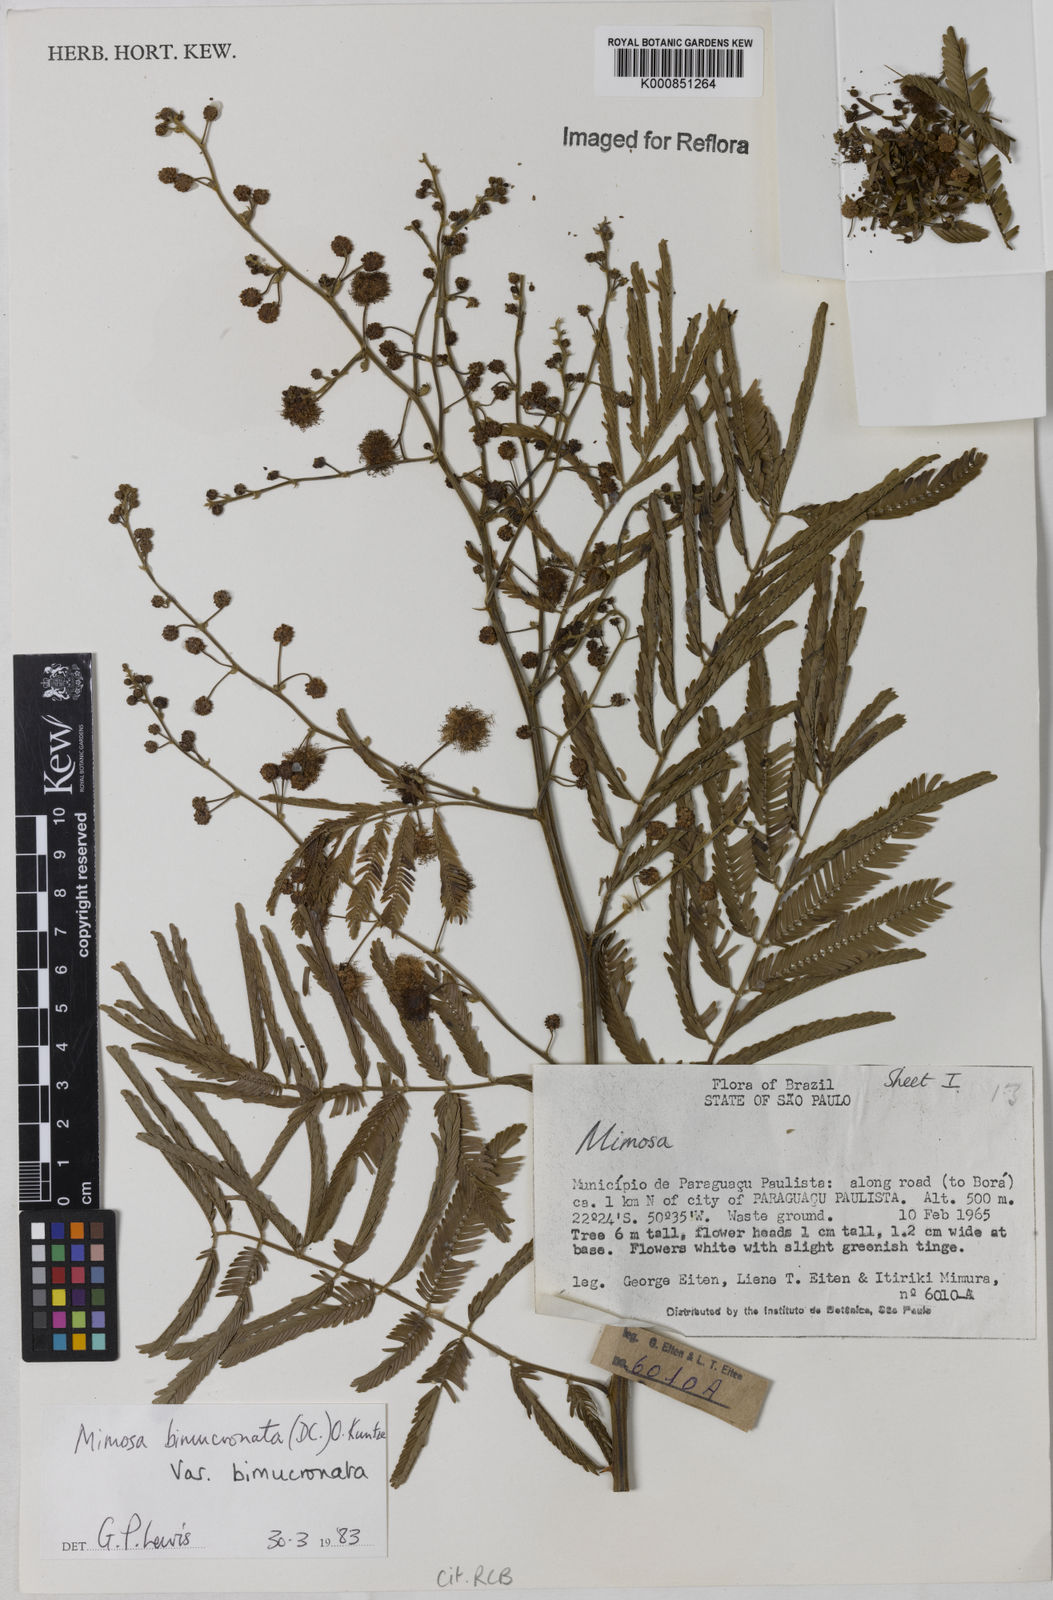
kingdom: Plantae
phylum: Tracheophyta
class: Magnoliopsida
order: Fabales
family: Fabaceae
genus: Mimosa
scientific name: Mimosa bimucronata
